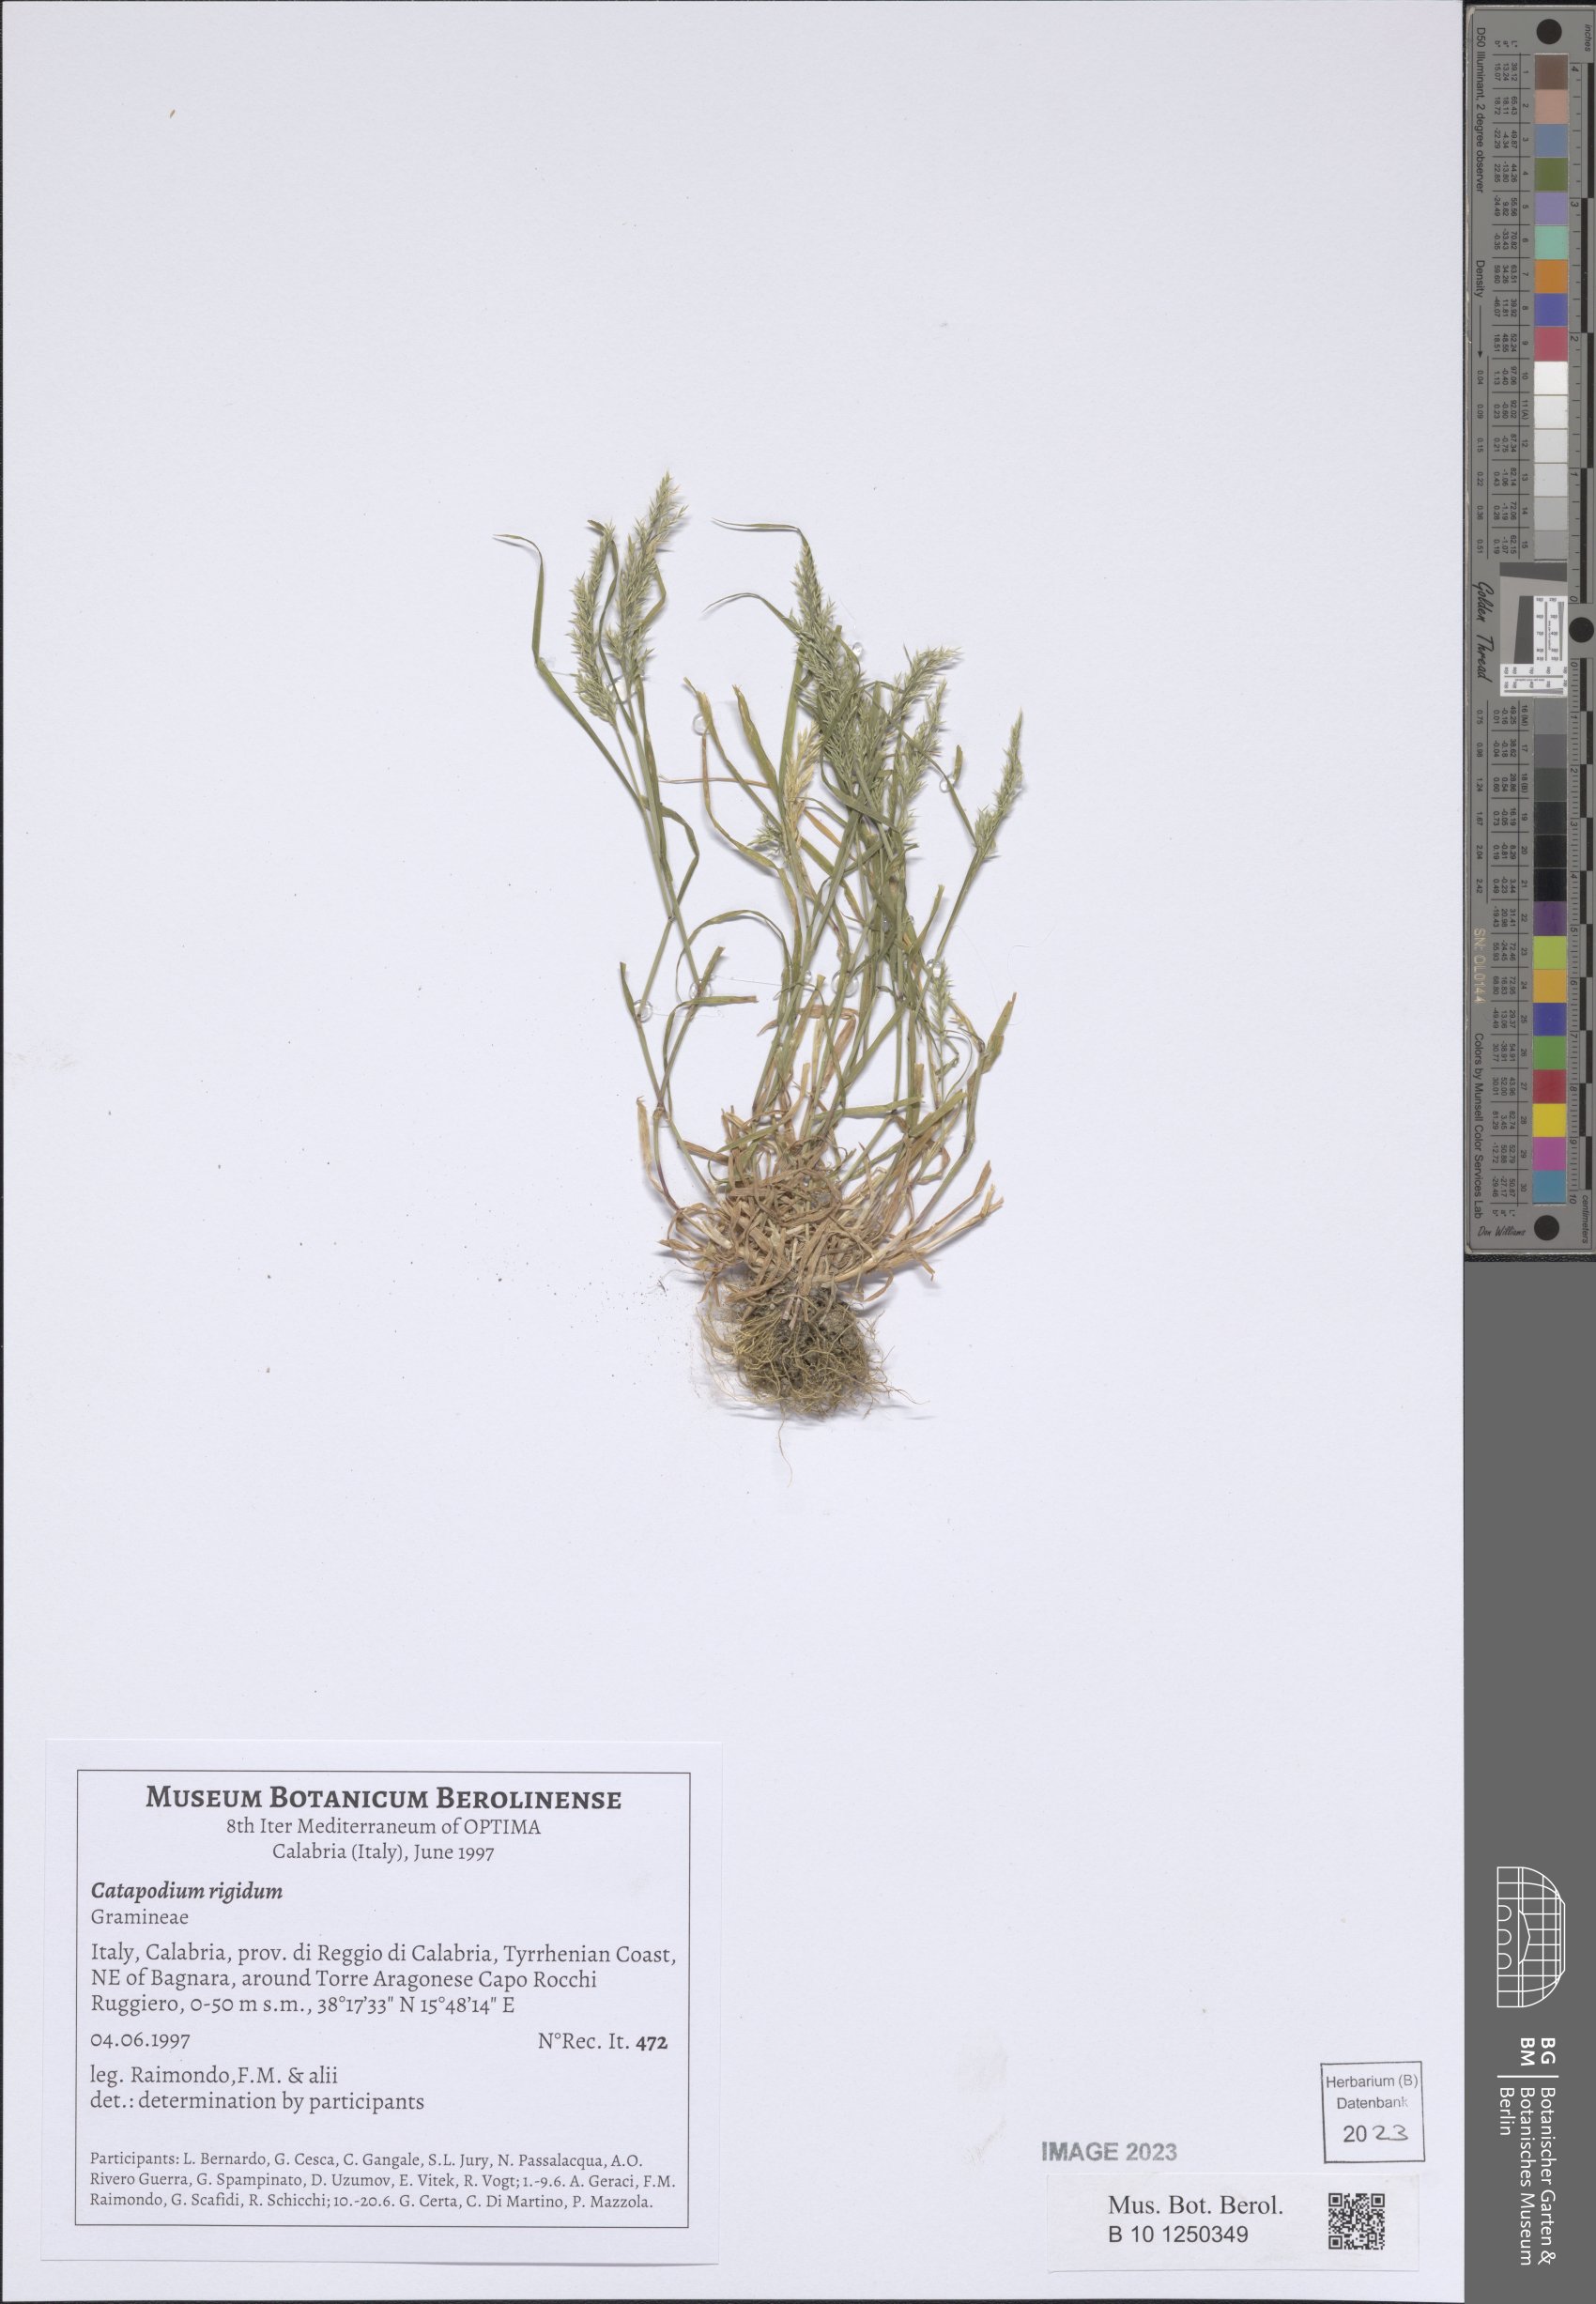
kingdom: Plantae
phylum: Tracheophyta
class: Liliopsida
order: Poales
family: Poaceae
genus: Catapodium
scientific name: Catapodium rigidum
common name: Fern-grass
